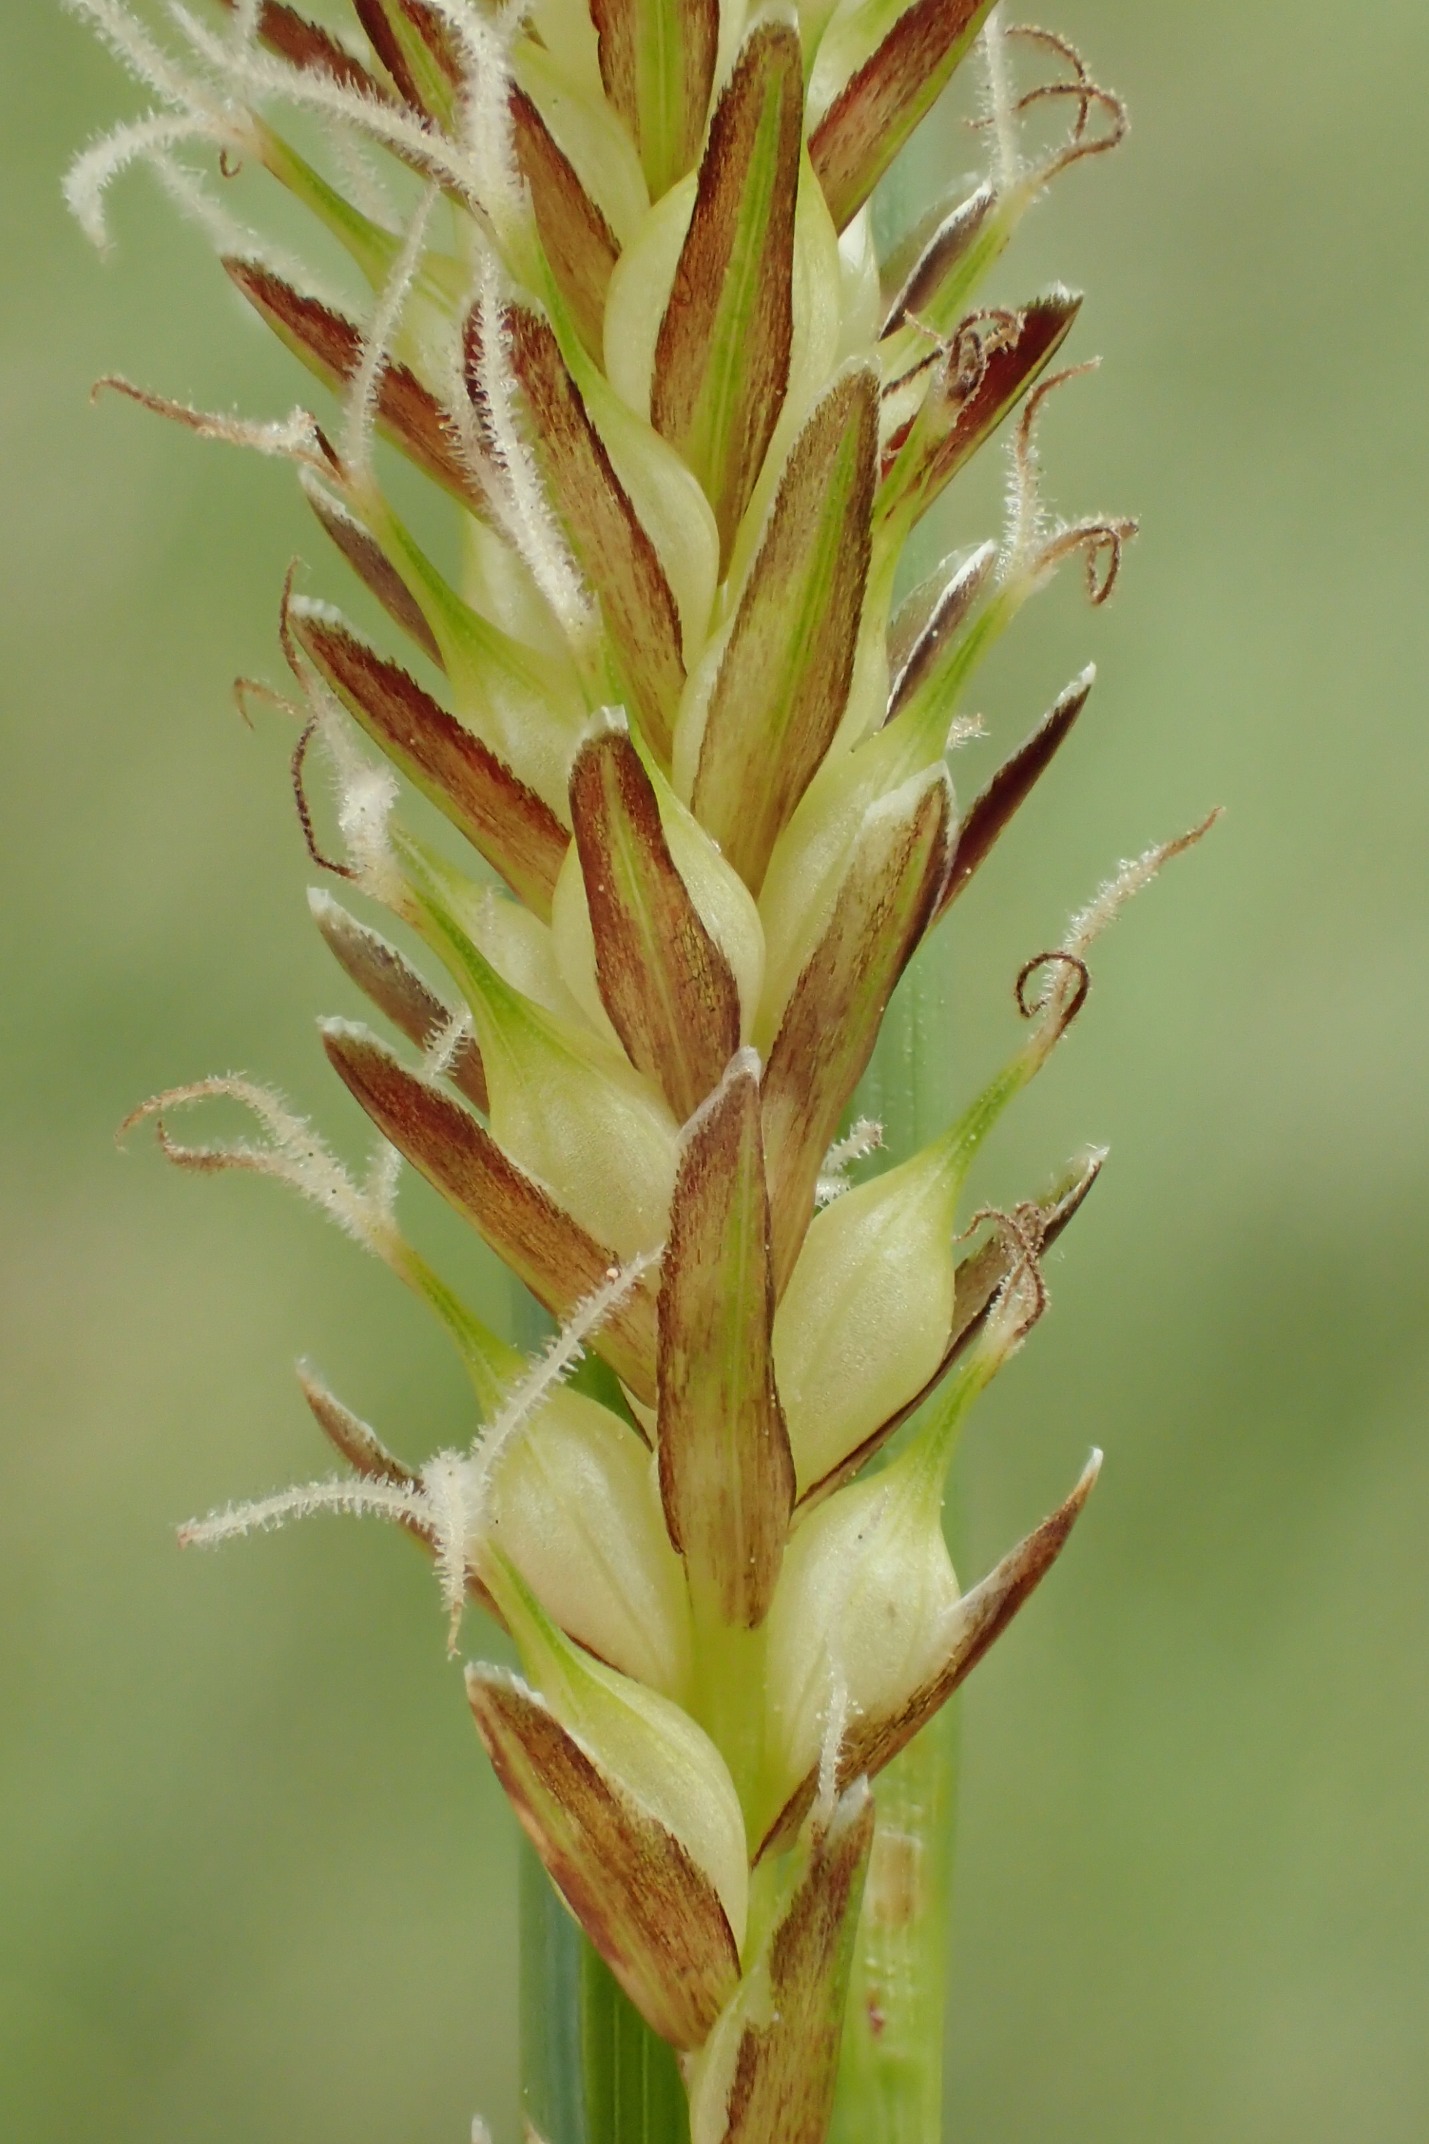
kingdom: Plantae
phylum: Tracheophyta
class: Liliopsida
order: Poales
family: Cyperaceae
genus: Carex
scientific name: Carex rostrata
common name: Næb-star
